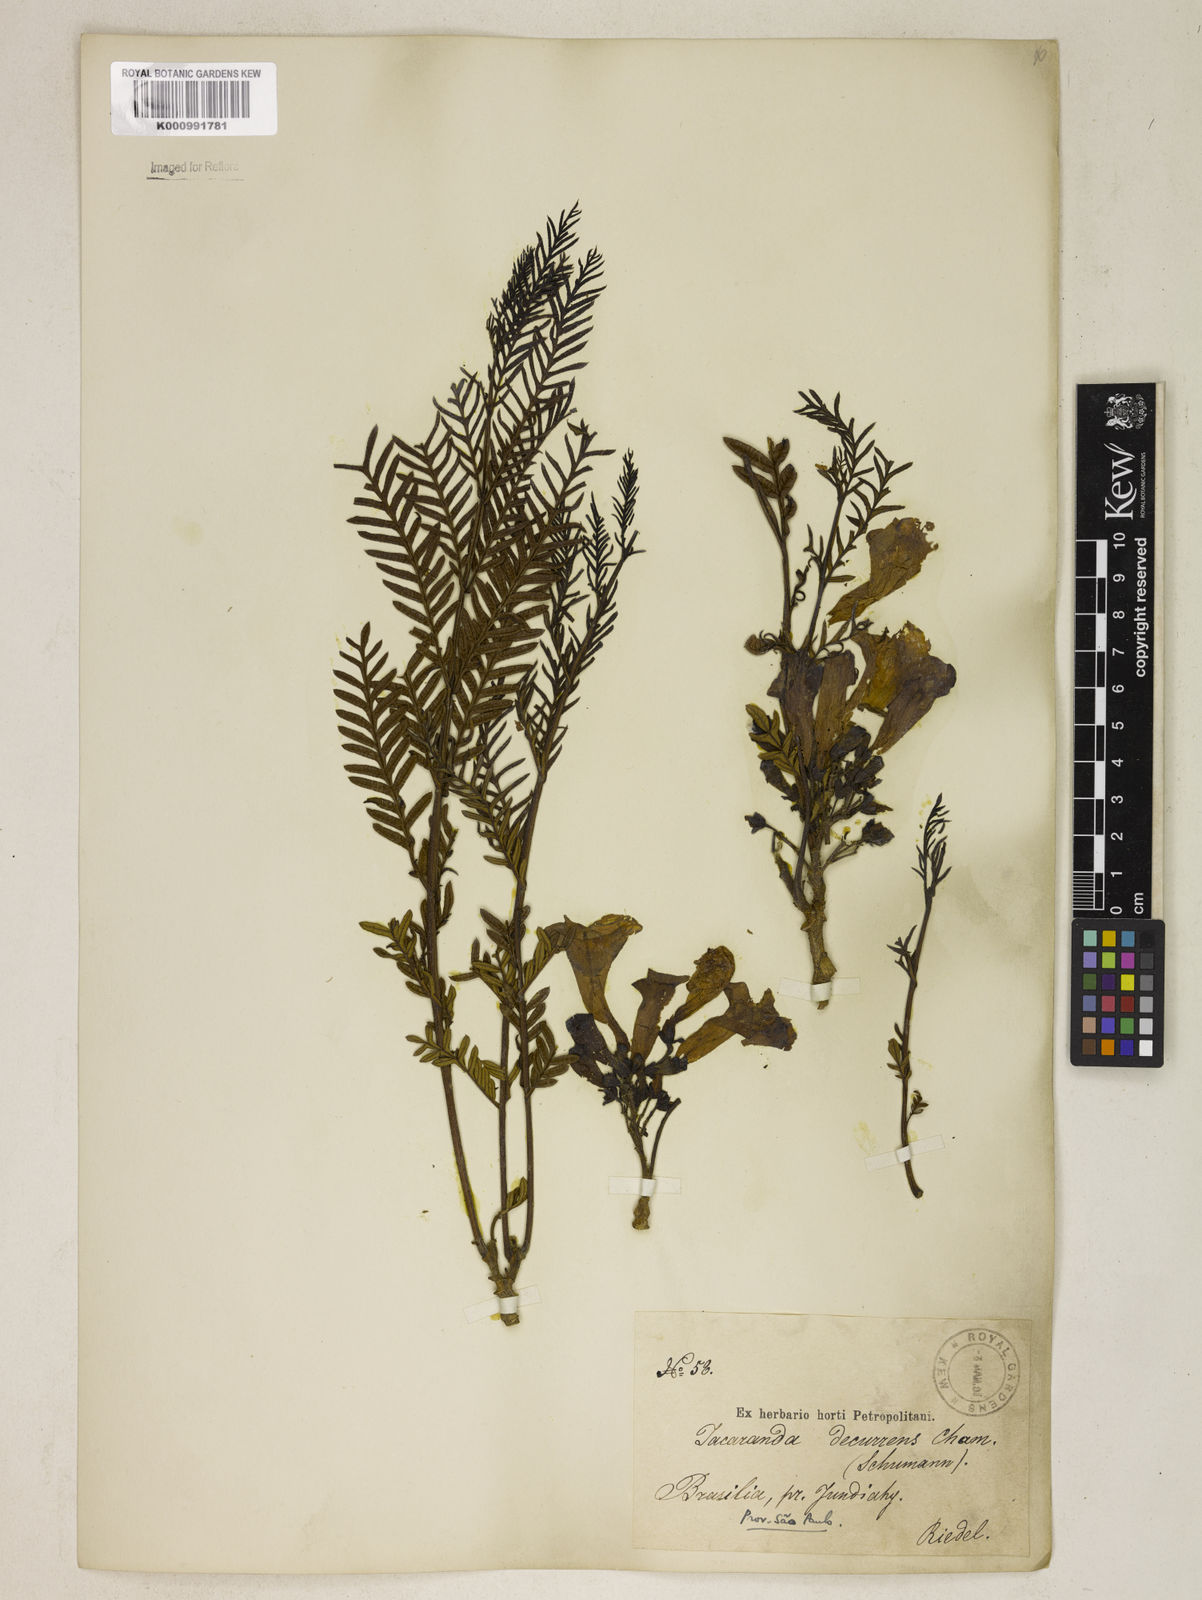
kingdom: Plantae
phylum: Tracheophyta
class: Magnoliopsida
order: Lamiales
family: Bignoniaceae
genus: Jacaranda
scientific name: Jacaranda decurrens
